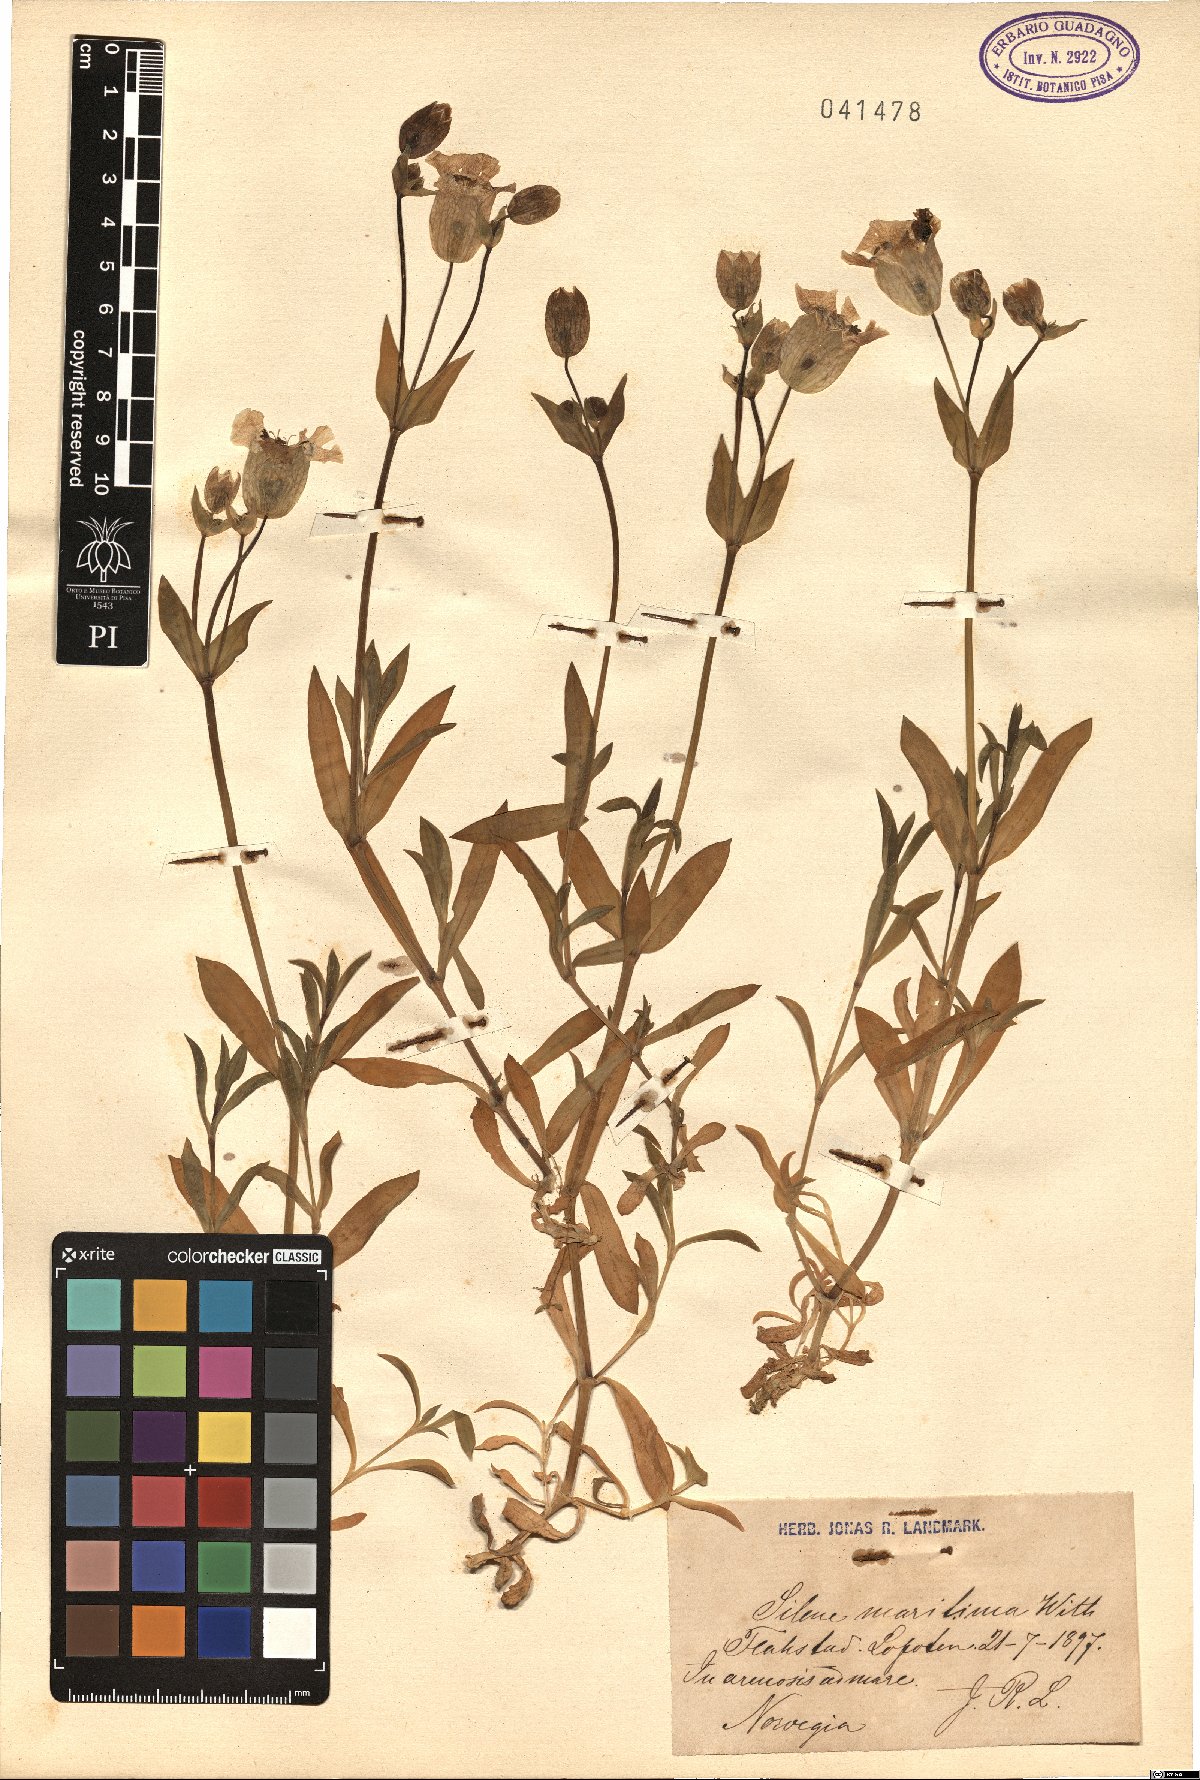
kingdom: Plantae
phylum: Tracheophyta
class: Magnoliopsida
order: Caryophyllales
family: Caryophyllaceae
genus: Silene
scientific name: Silene uniflora
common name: Sea campion
